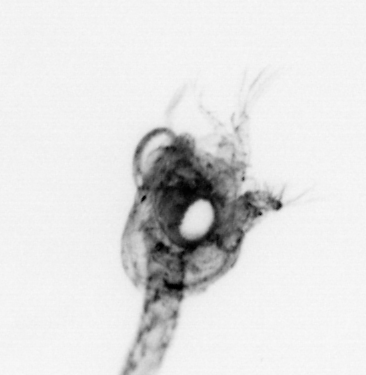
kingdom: Animalia
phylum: Arthropoda
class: Malacostraca
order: Decapoda
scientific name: Decapoda
